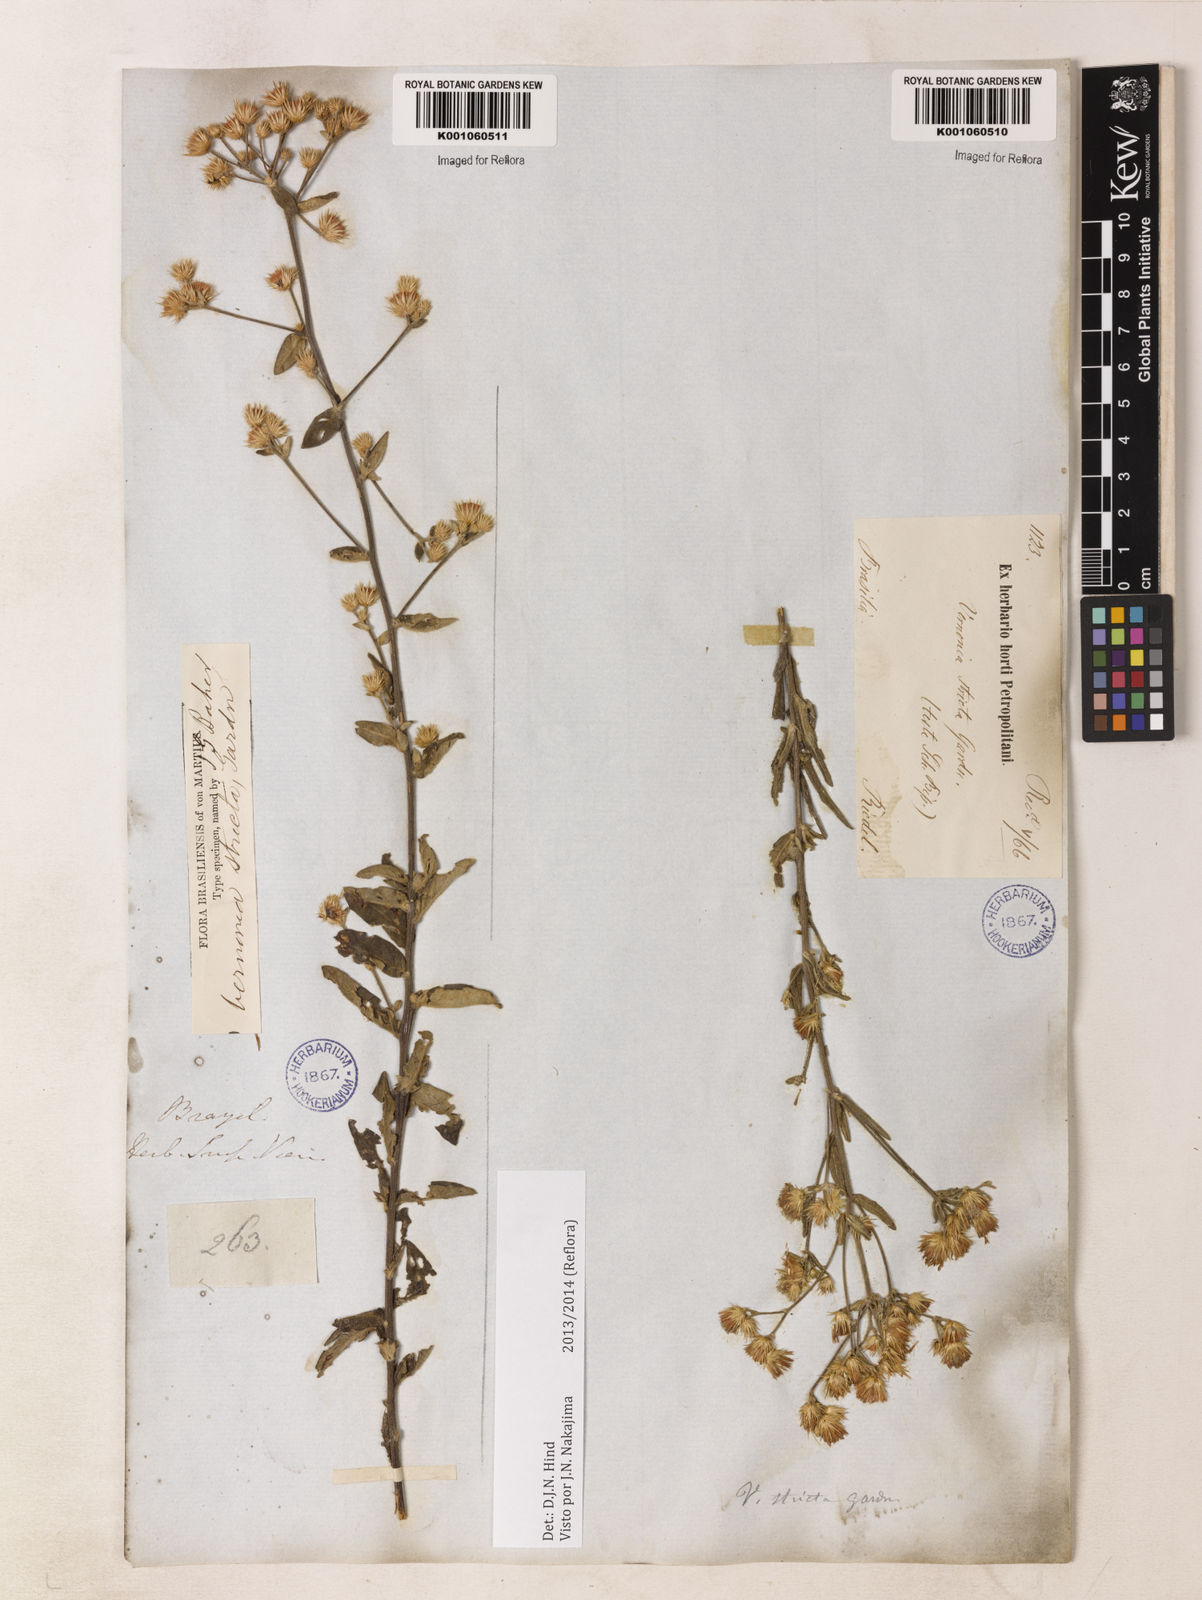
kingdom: Plantae
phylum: Tracheophyta
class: Magnoliopsida
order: Asterales
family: Asteraceae
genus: Echinocoryne
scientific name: Echinocoryne stricta
